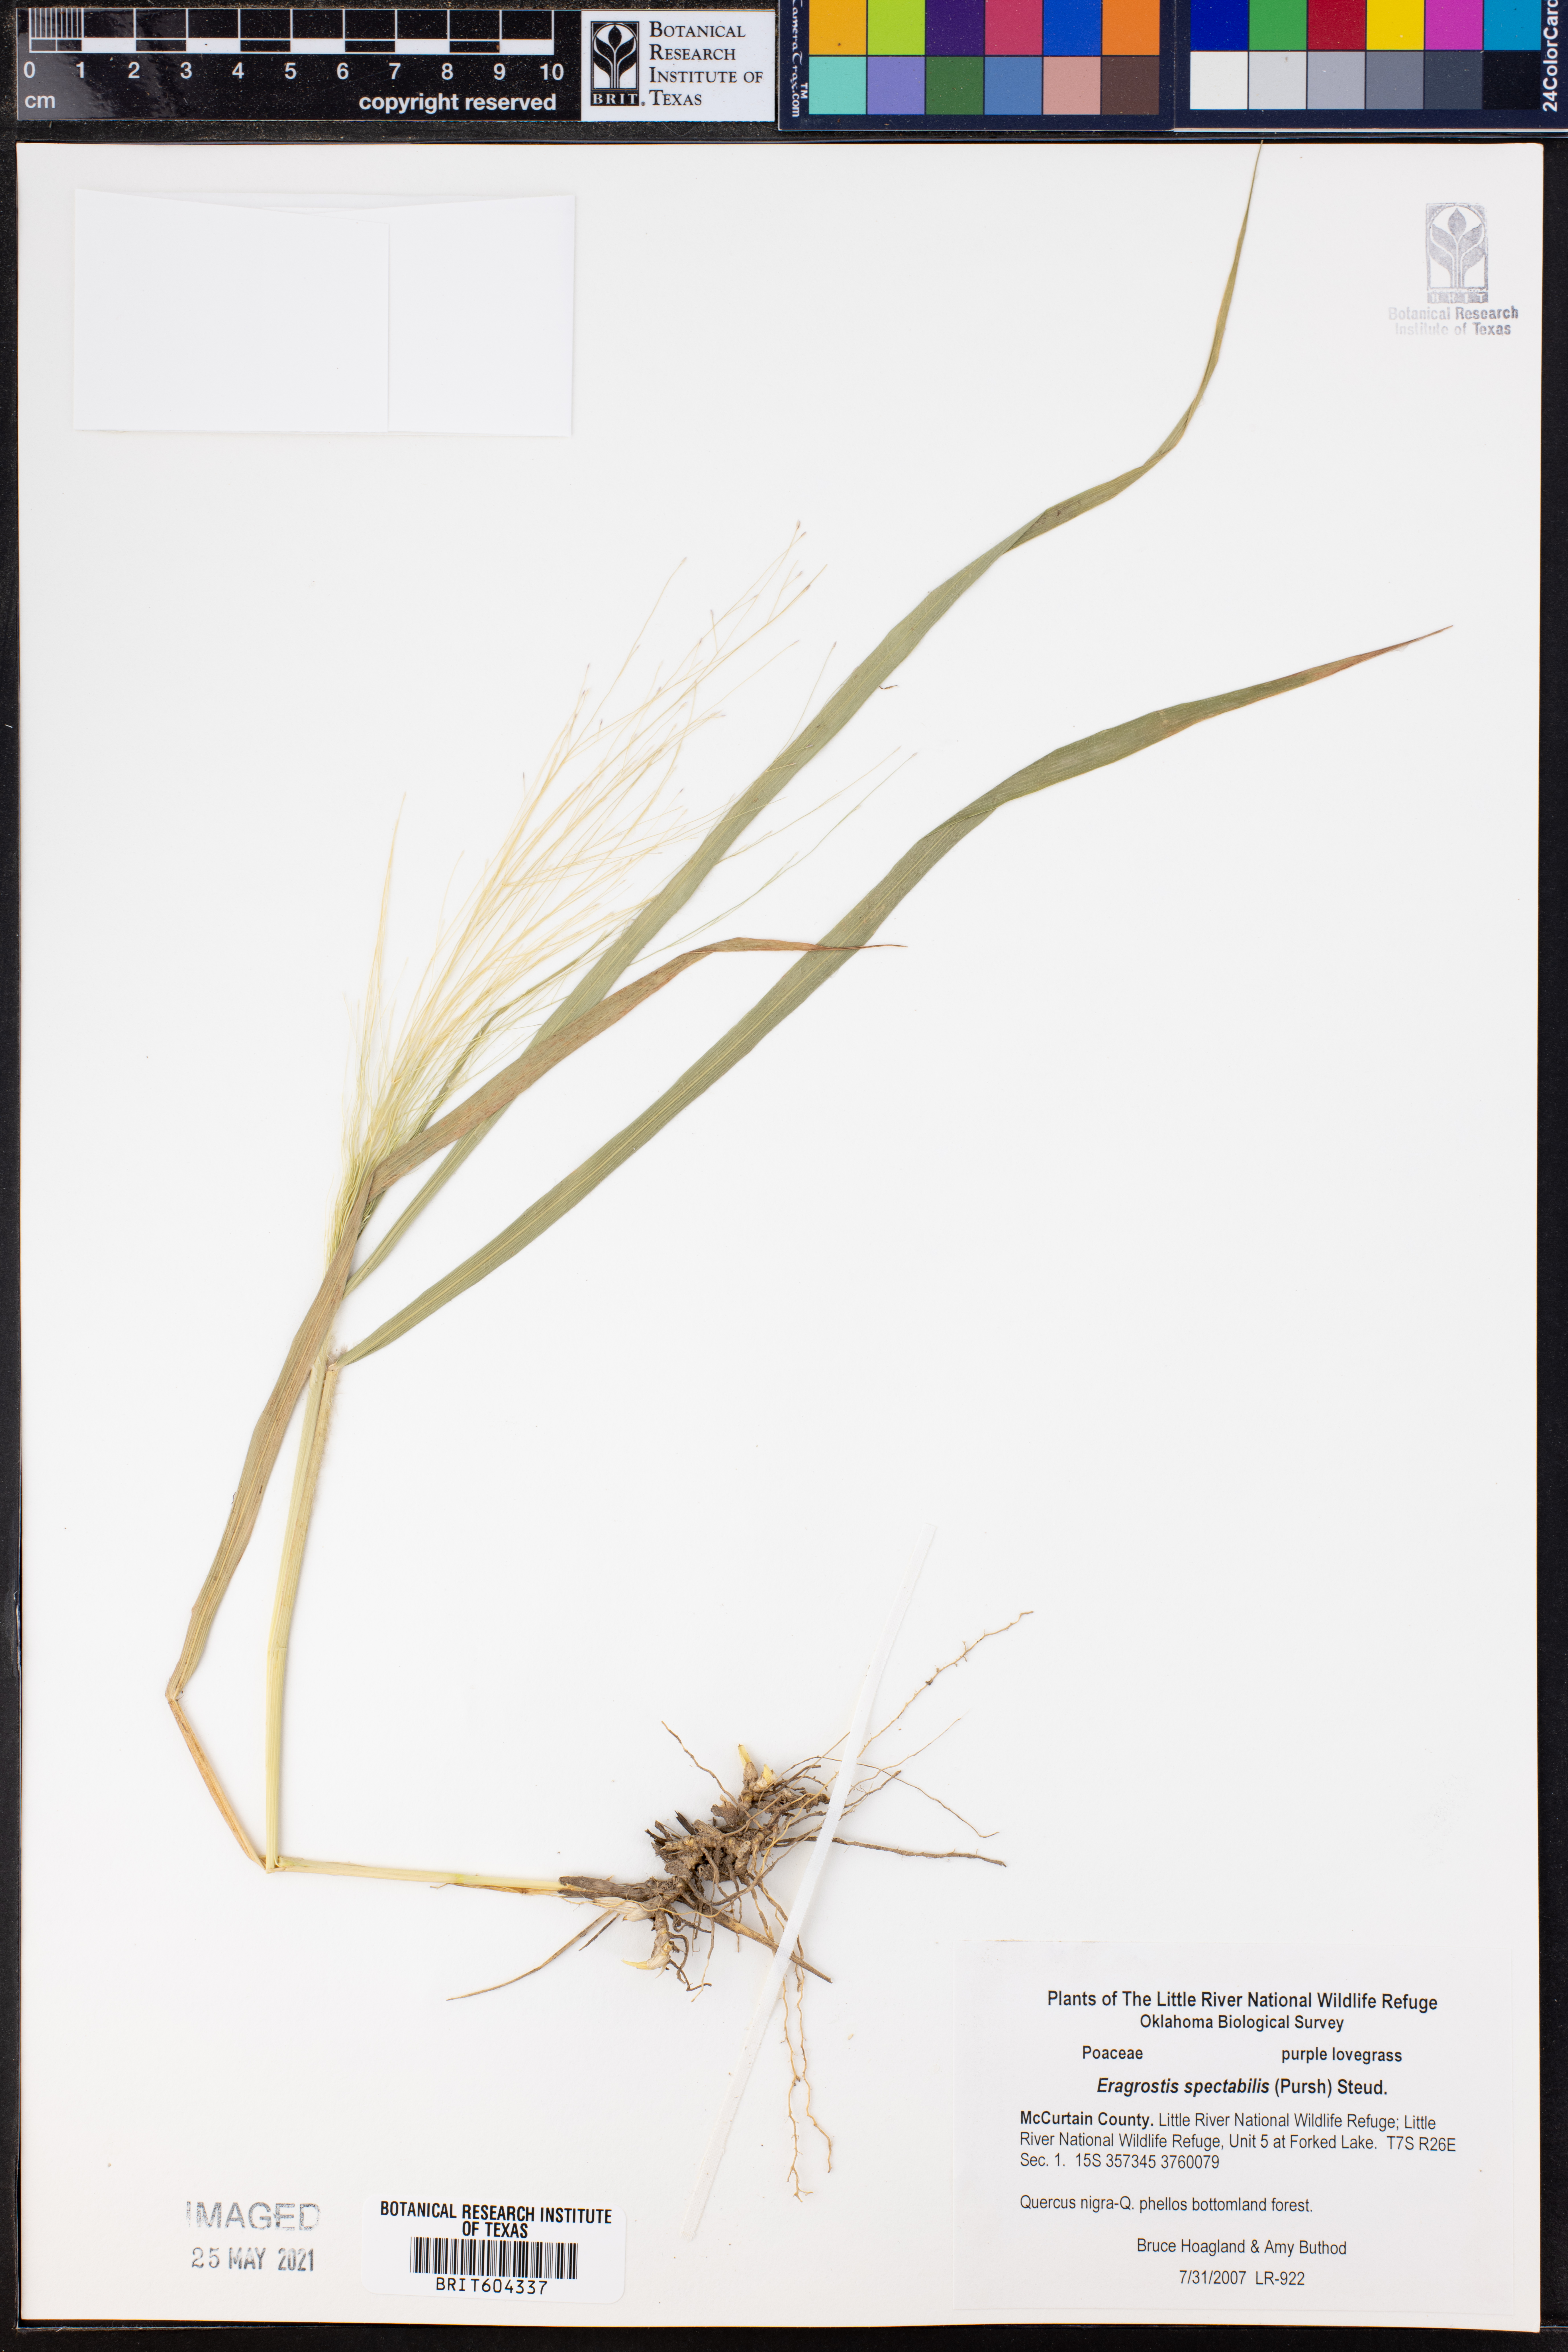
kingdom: Plantae
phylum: Tracheophyta
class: Liliopsida
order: Poales
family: Poaceae
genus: Eragrostis
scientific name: Eragrostis spectabilis
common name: Petticoat-climber
